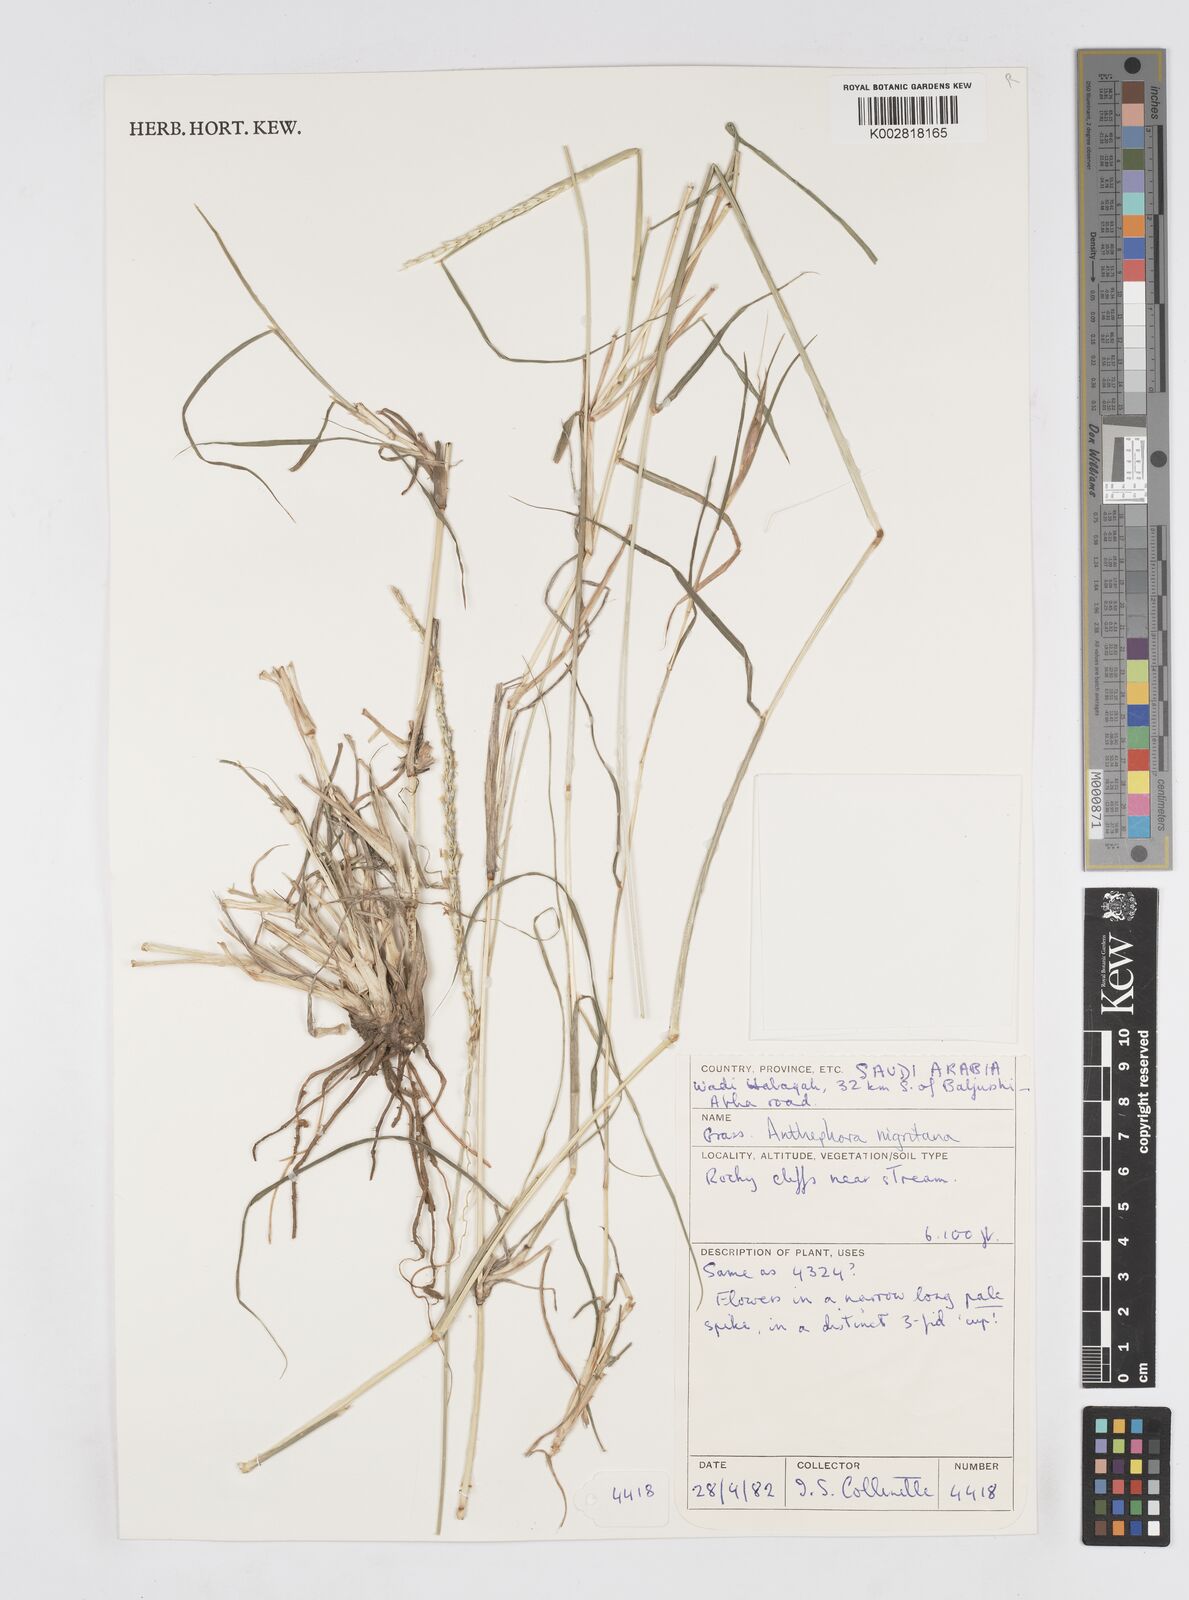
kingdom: Plantae
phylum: Tracheophyta
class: Liliopsida
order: Poales
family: Poaceae
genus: Anthephora
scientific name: Anthephora nigritana
